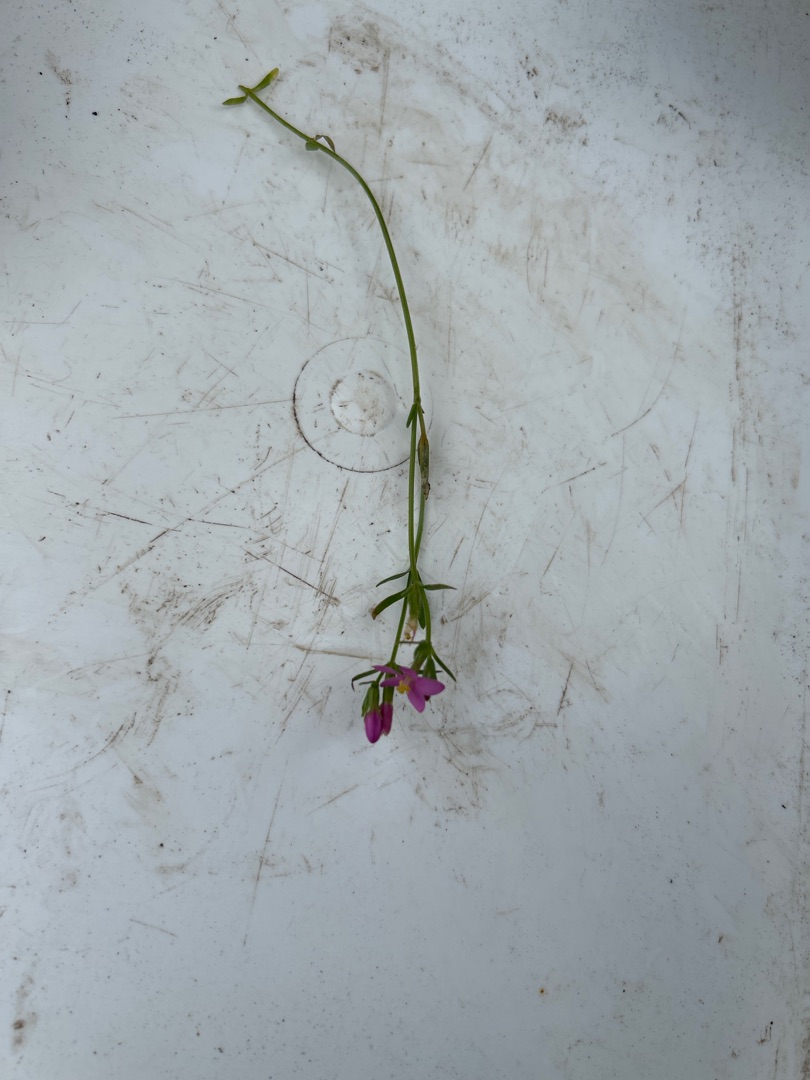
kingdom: Plantae
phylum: Tracheophyta
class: Magnoliopsida
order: Gentianales
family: Gentianaceae
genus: Centaurium
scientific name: Centaurium littorale
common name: Strand-tusindgylden
